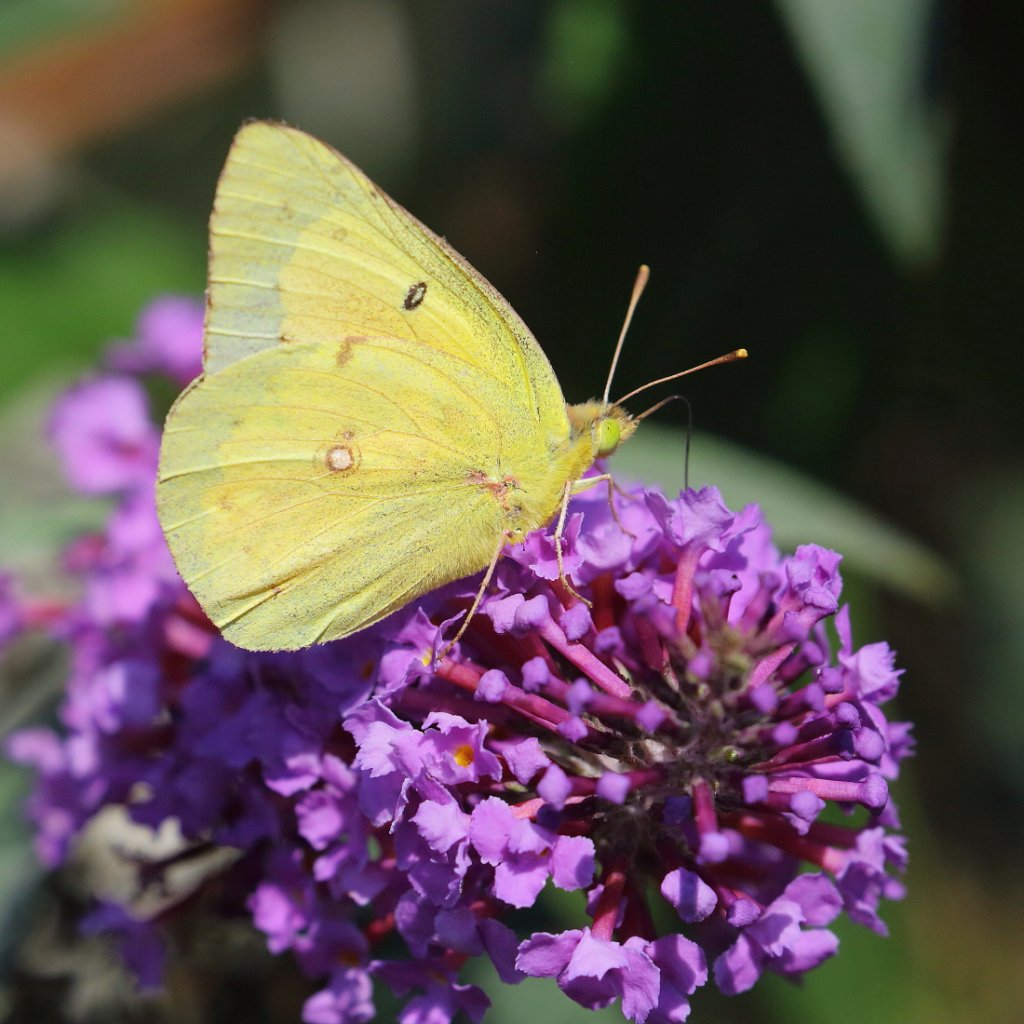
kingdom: Animalia
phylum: Arthropoda
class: Insecta
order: Lepidoptera
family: Pieridae
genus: Colias
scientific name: Colias eurytheme
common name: Orange Sulphur
